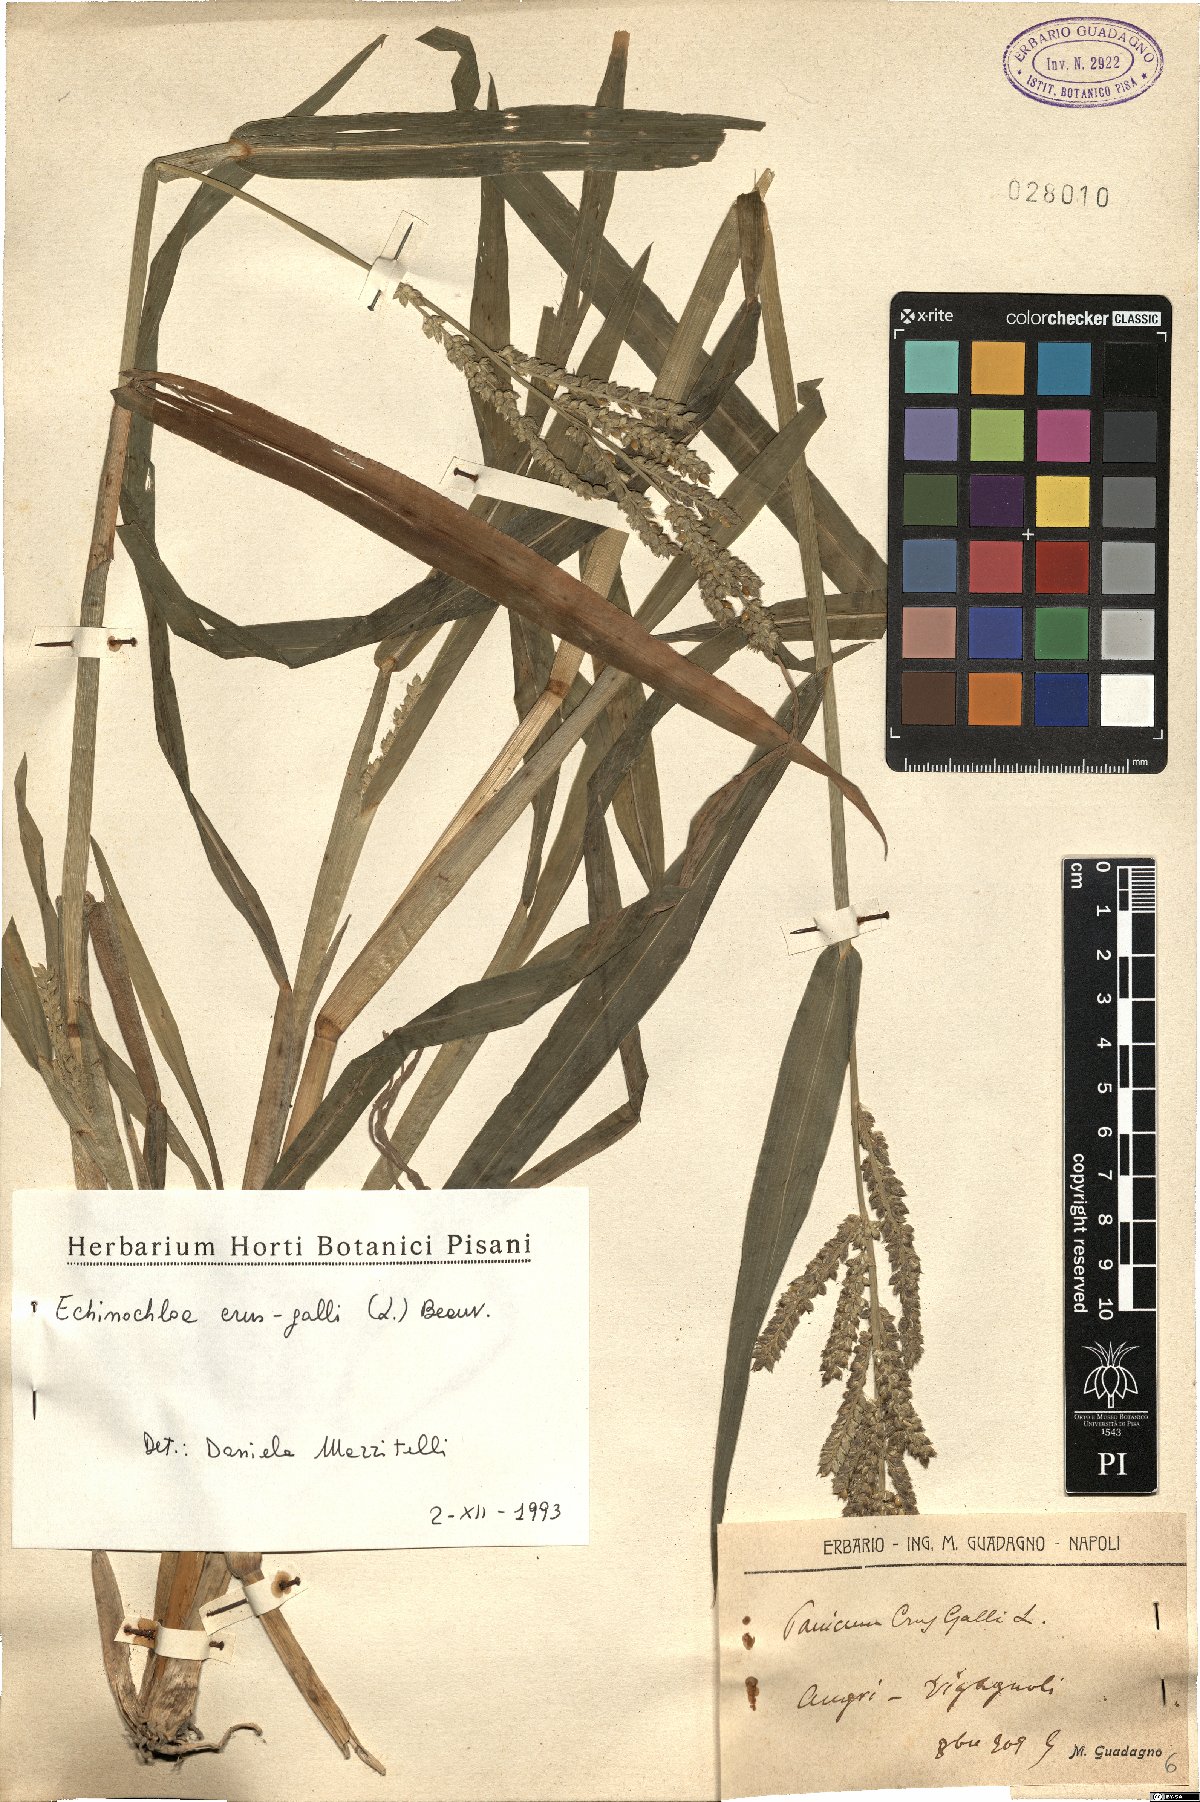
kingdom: Plantae
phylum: Tracheophyta
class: Liliopsida
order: Poales
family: Poaceae
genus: Echinochloa
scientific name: Echinochloa crus-galli
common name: Cockspur
